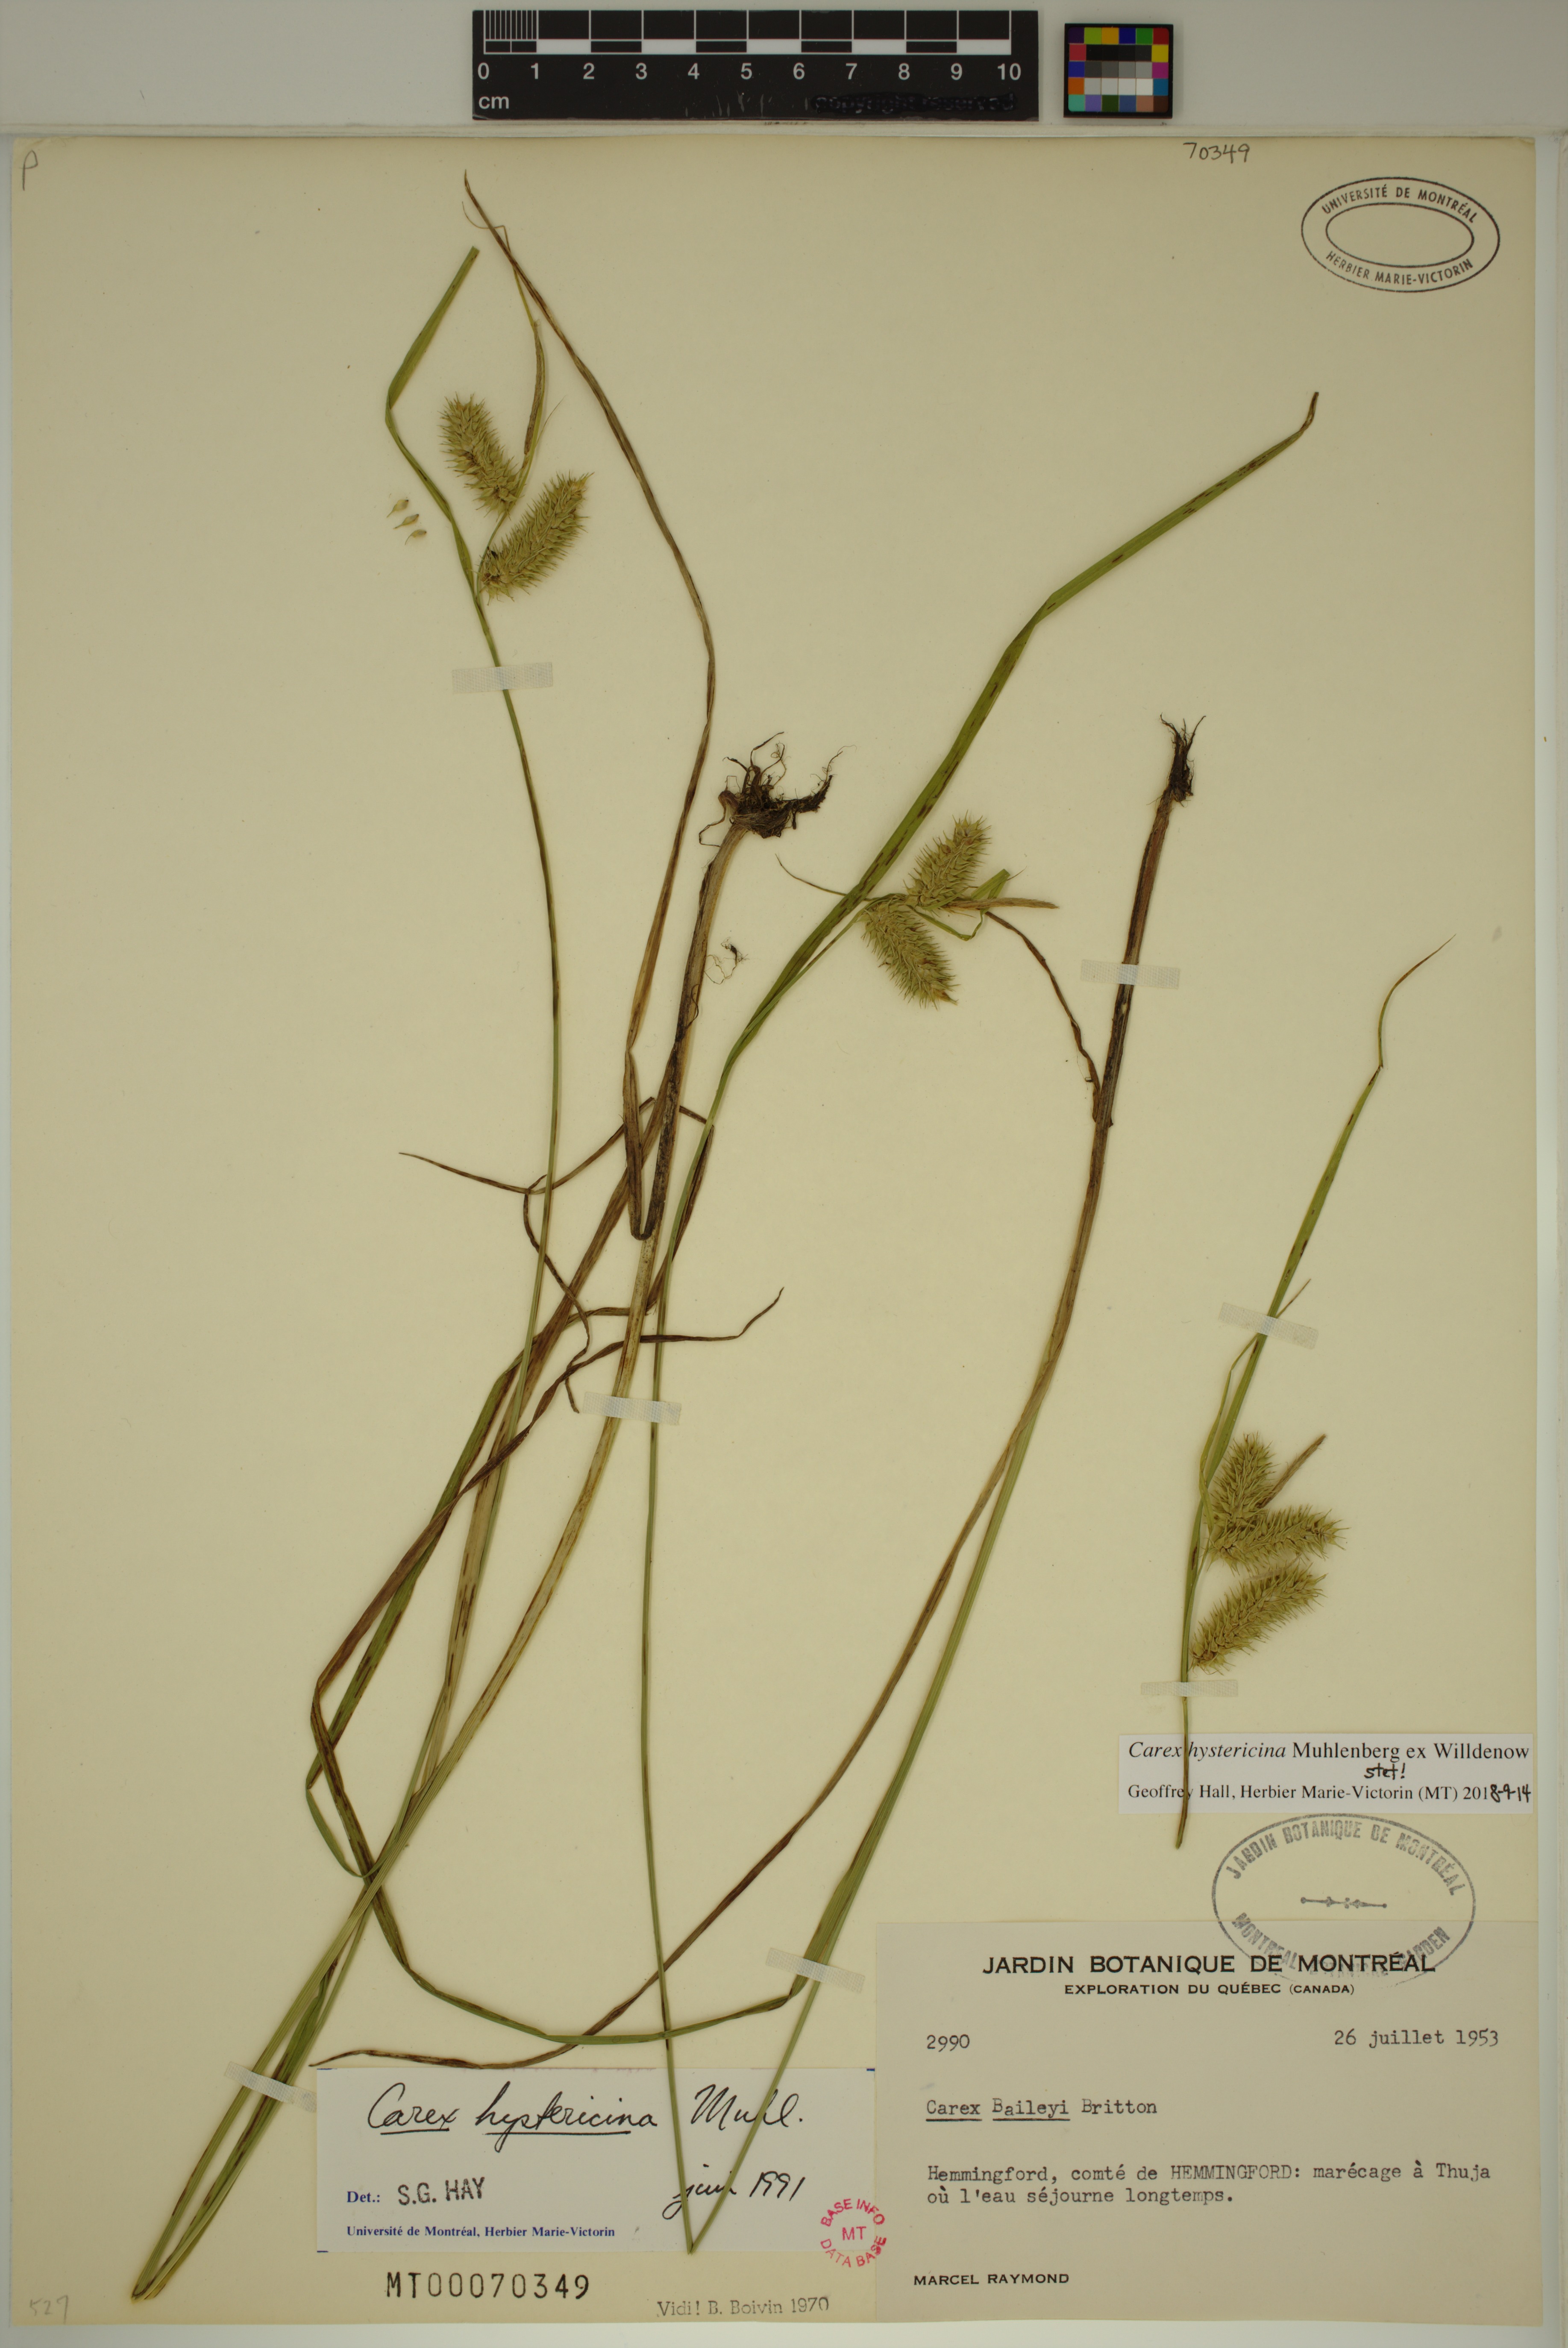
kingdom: Plantae
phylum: Tracheophyta
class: Liliopsida
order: Poales
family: Cyperaceae
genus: Carex
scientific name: Carex hystericina
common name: Bottlebrush sedge
